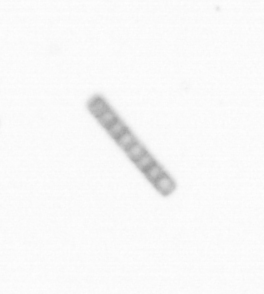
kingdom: Chromista
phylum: Ochrophyta
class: Bacillariophyceae
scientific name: Bacillariophyceae
